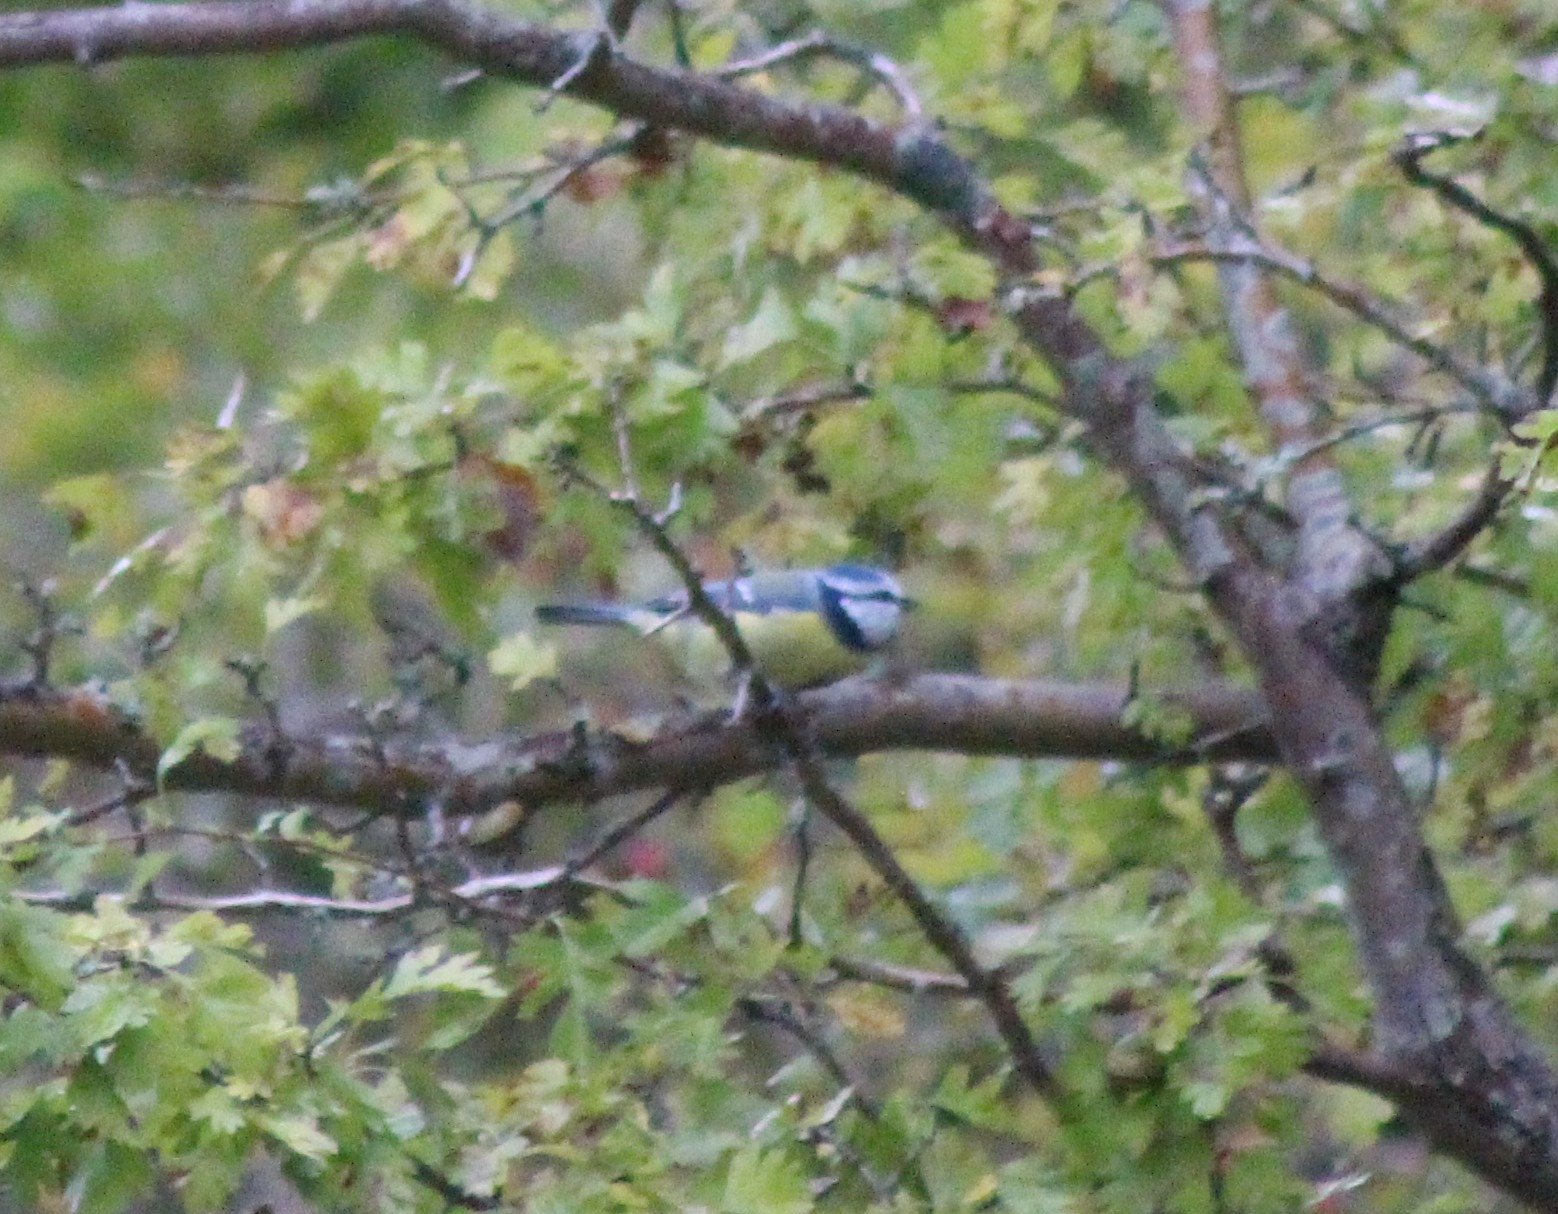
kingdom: Animalia
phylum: Chordata
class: Aves
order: Passeriformes
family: Paridae
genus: Cyanistes
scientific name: Cyanistes caeruleus
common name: Blåmejse
